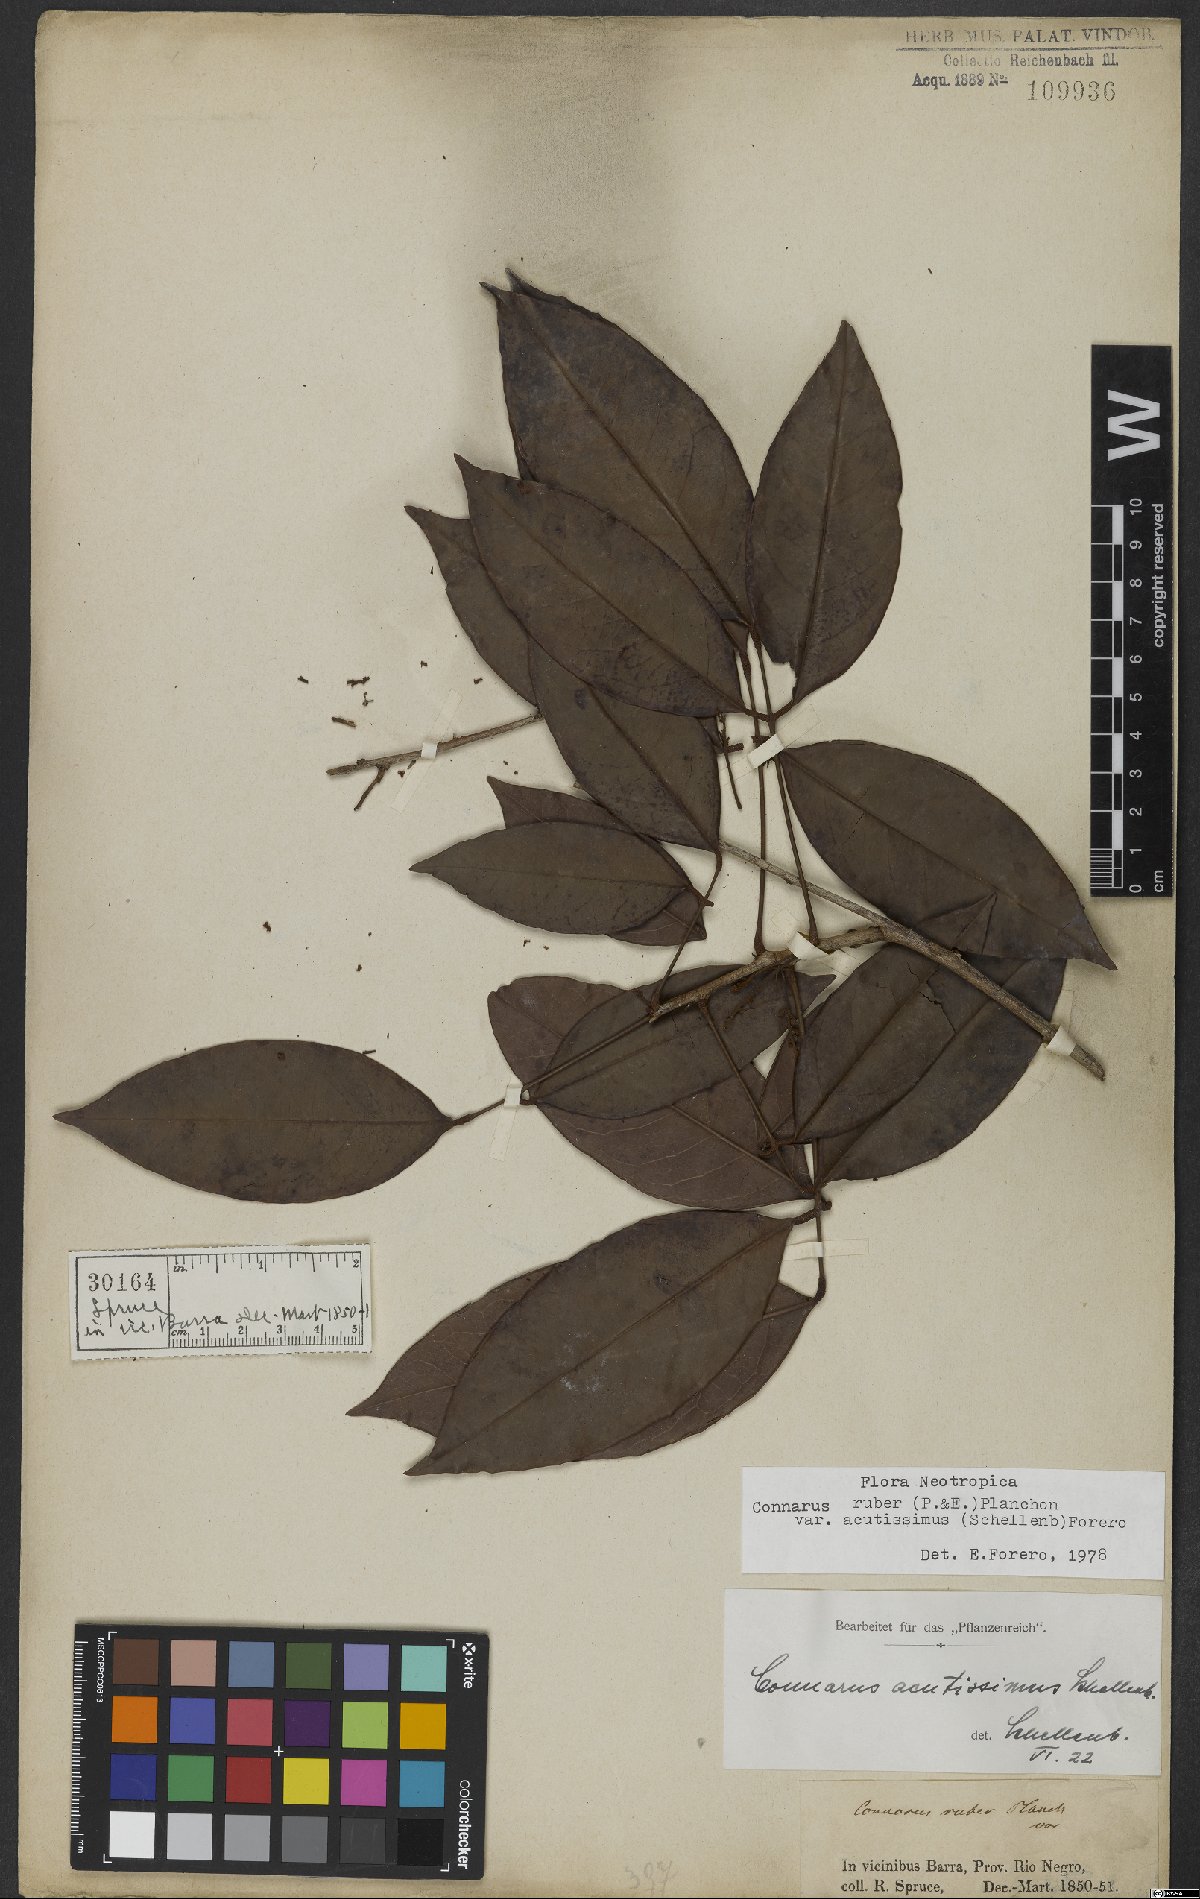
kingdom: Plantae
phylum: Tracheophyta
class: Magnoliopsida
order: Oxalidales
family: Connaraceae
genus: Connarus
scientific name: Connarus ruber
